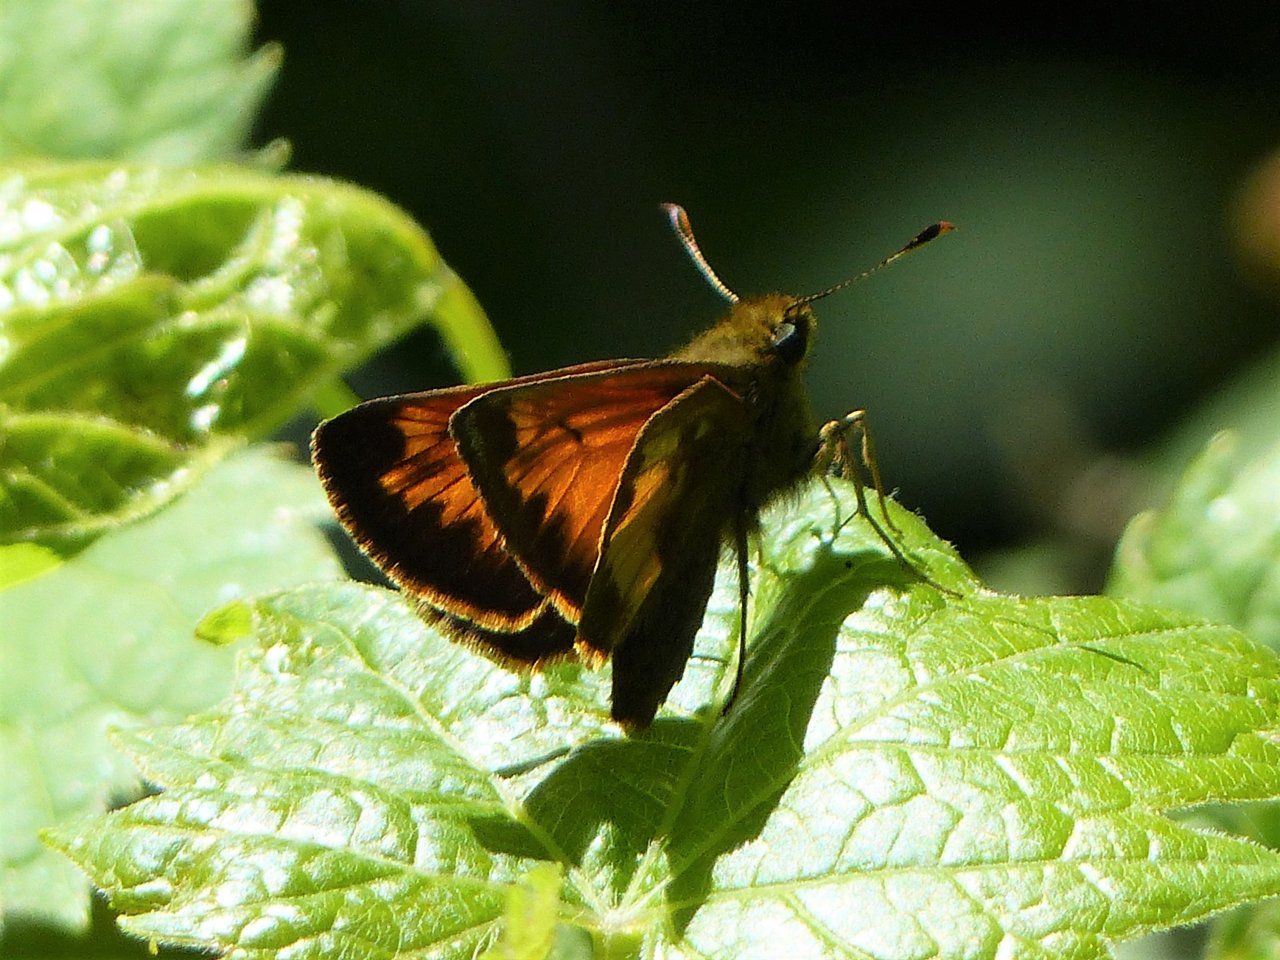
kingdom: Animalia
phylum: Arthropoda
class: Insecta
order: Lepidoptera
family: Hesperiidae
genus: Lon
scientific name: Lon hobomok
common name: Hobomok Skipper
